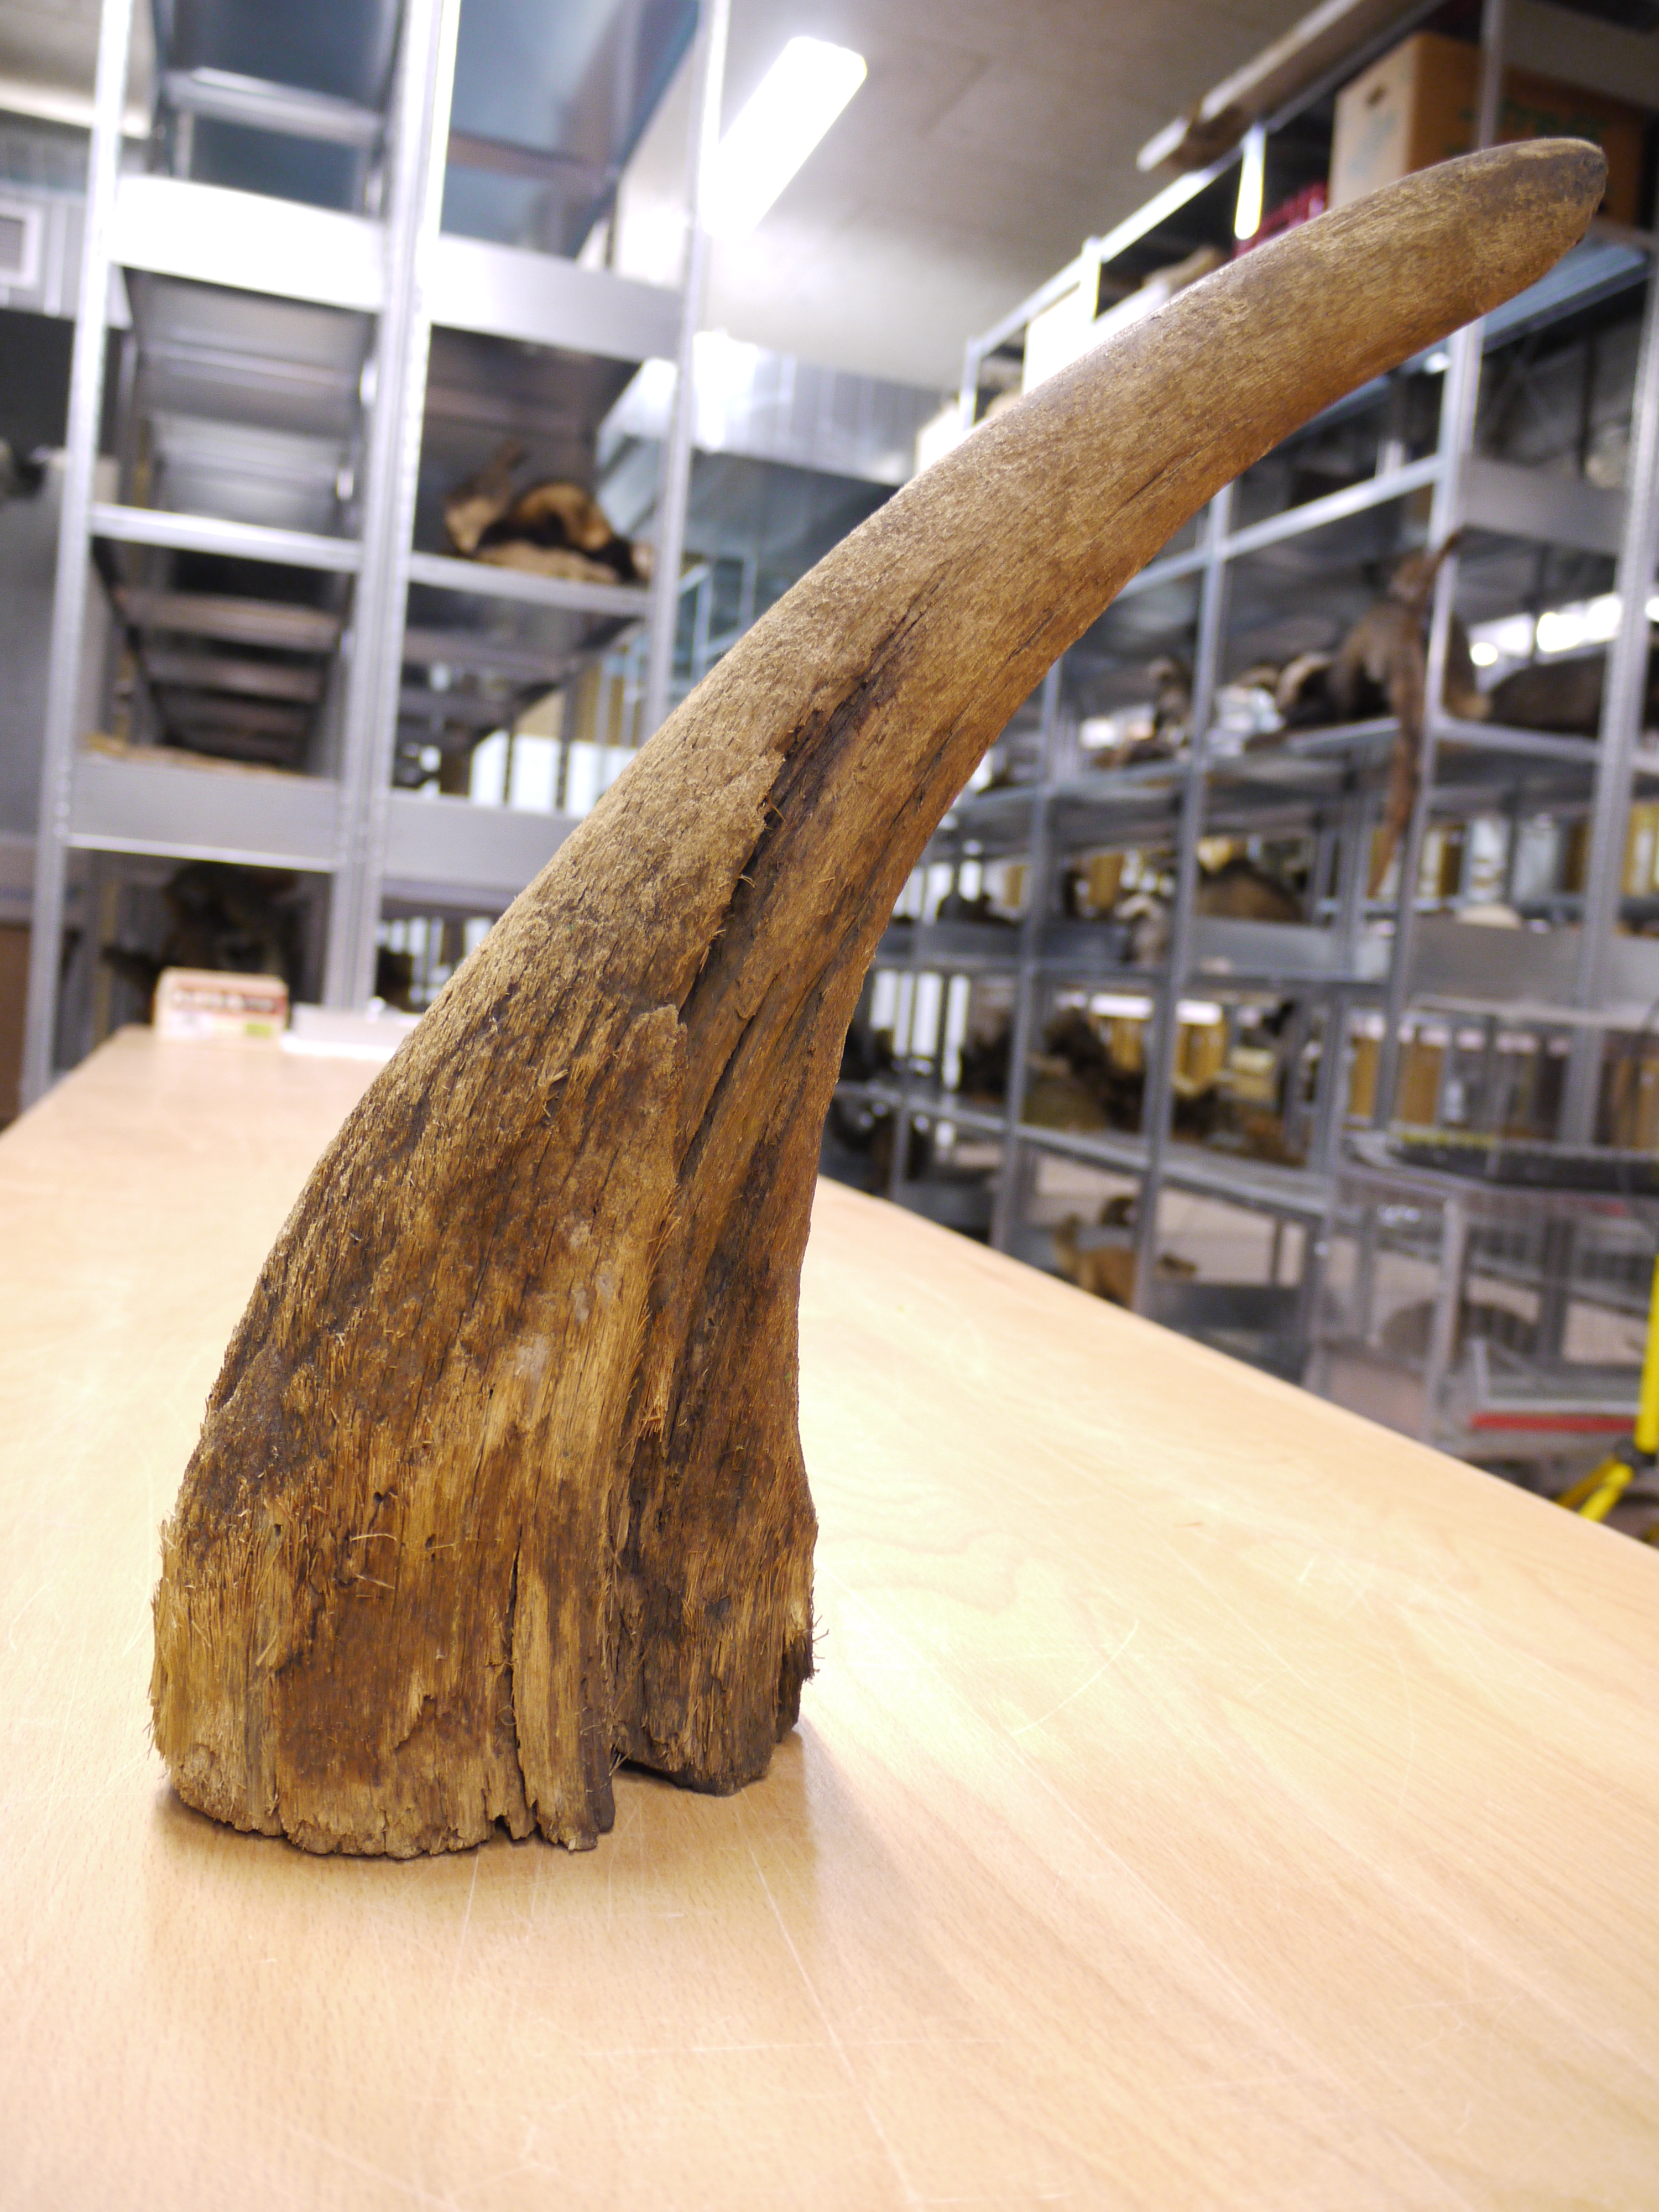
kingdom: Animalia
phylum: Chordata
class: Mammalia
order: Perissodactyla
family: Rhinocerotidae
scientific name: Rhinocerotidae
